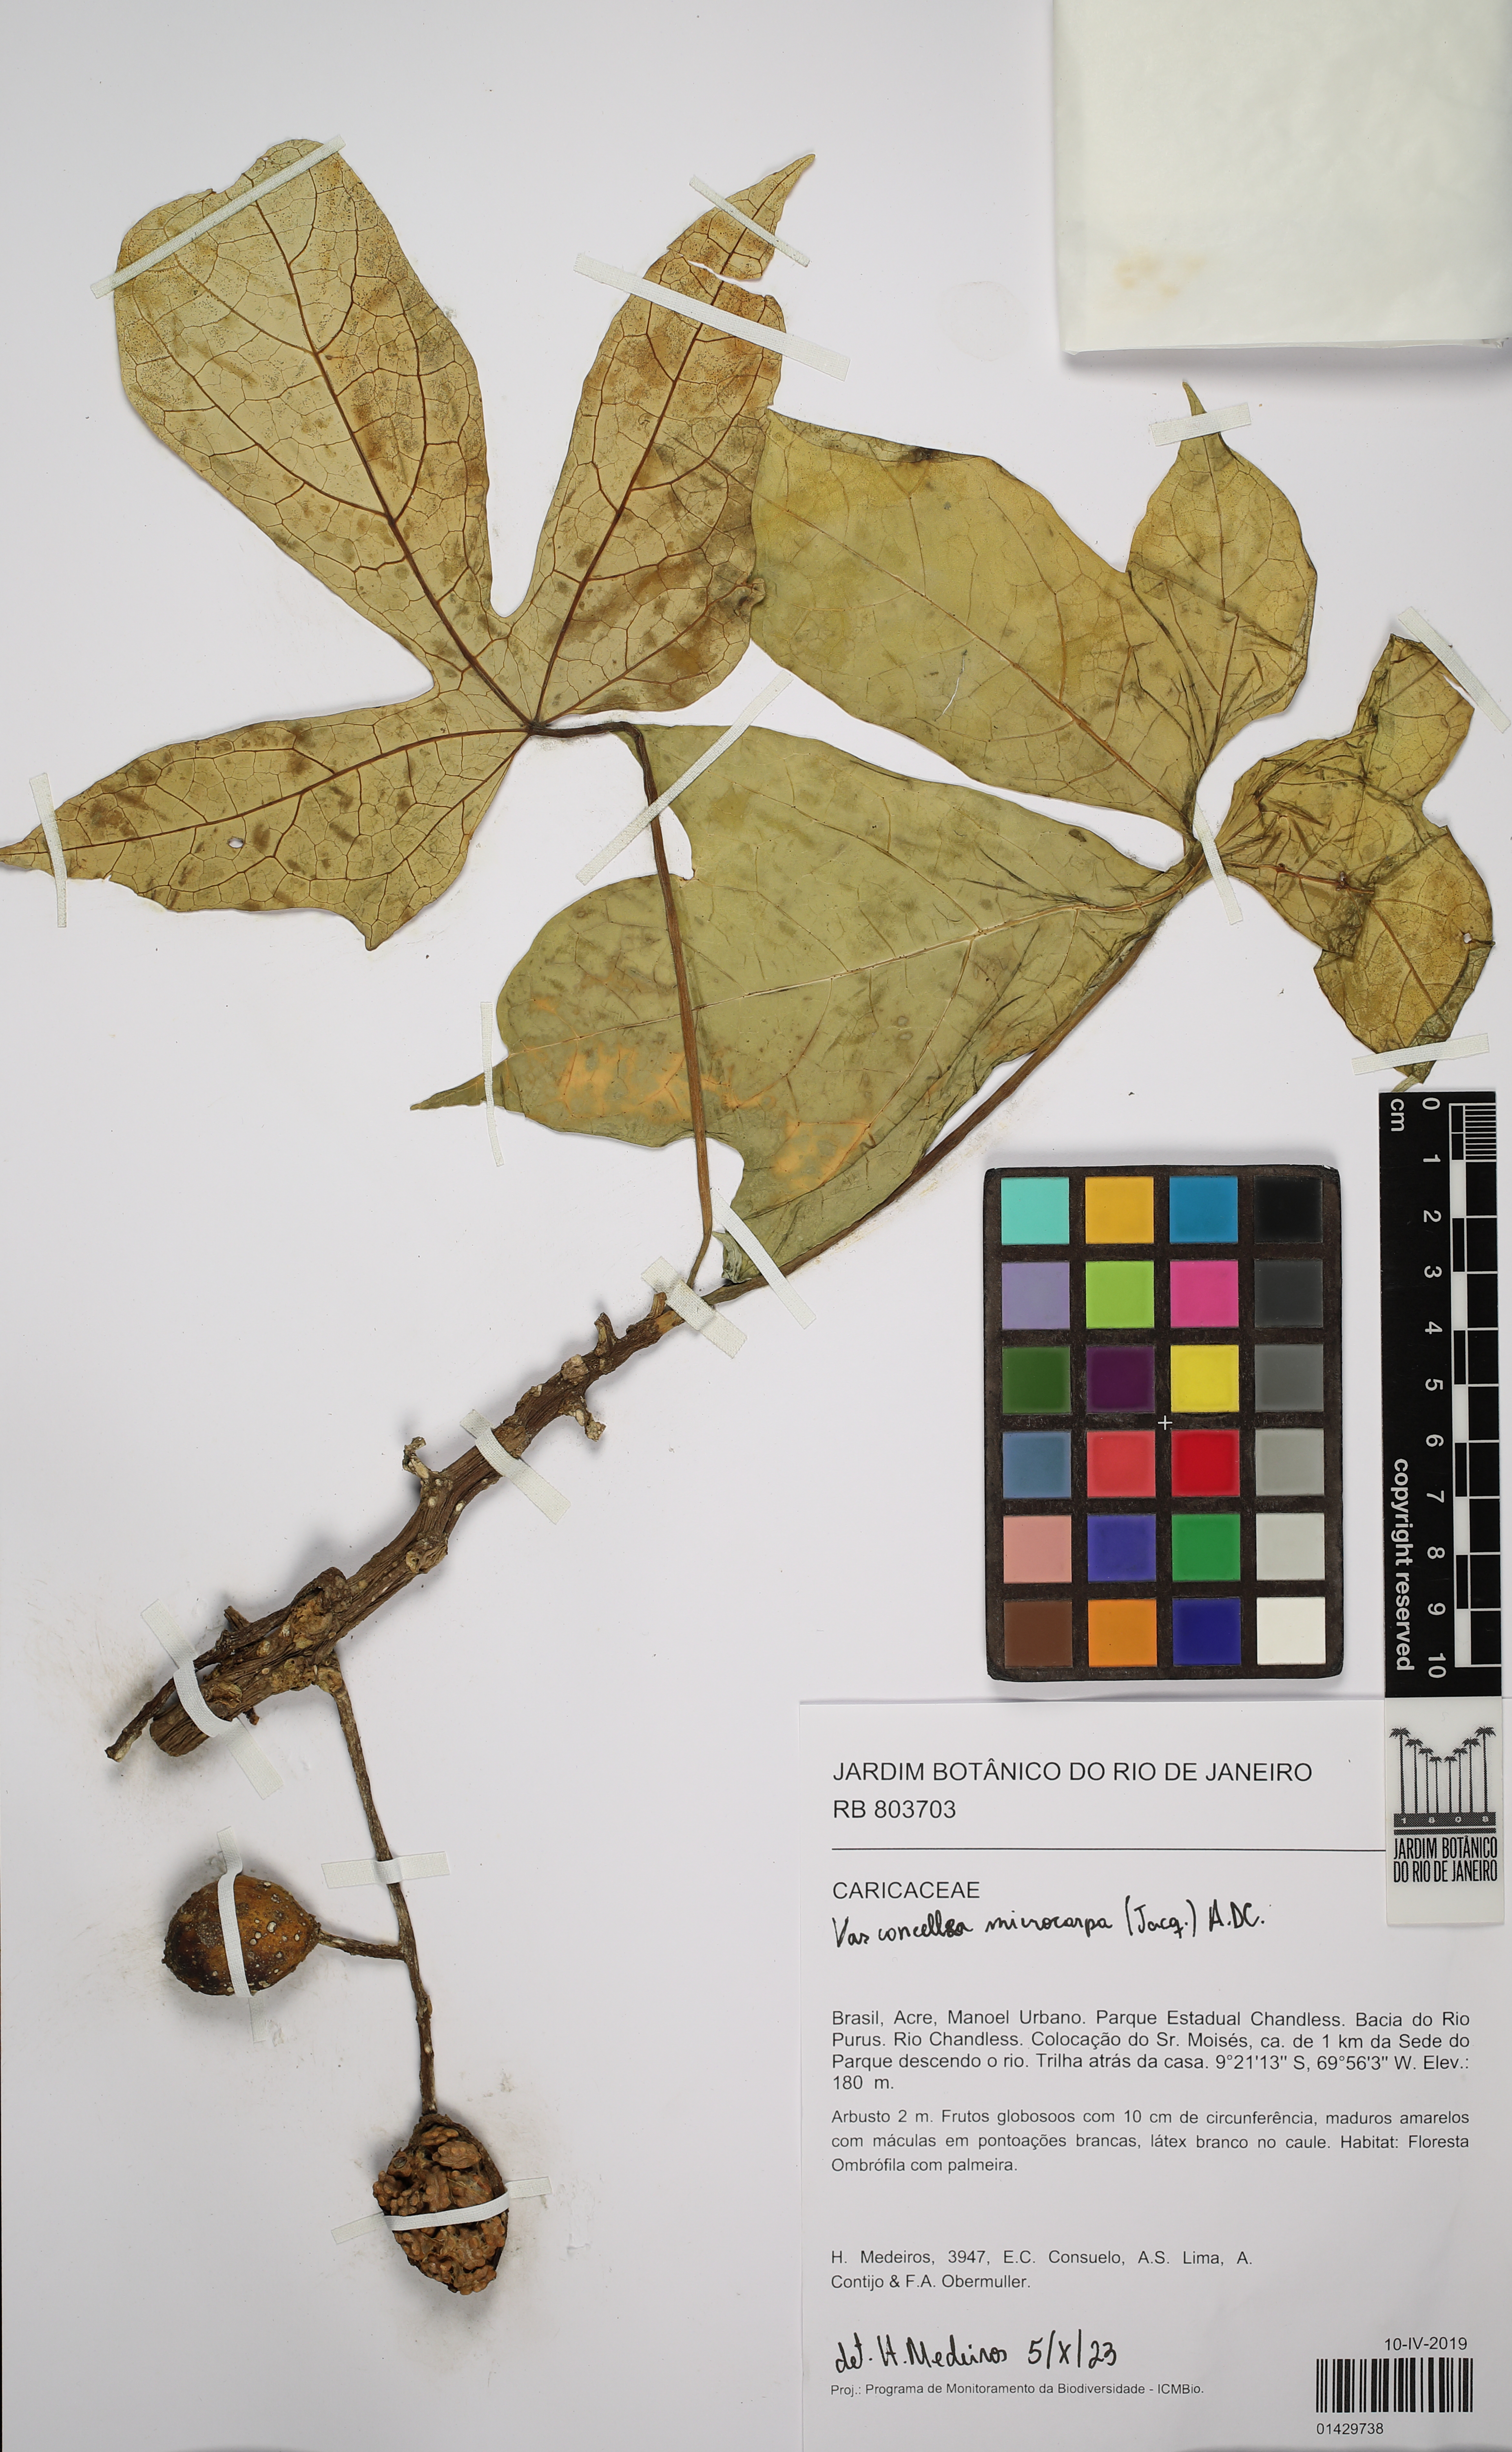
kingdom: Plantae
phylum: Tracheophyta
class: Magnoliopsida
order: Brassicales
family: Caricaceae
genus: Vasconcellea
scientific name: Vasconcellea microcarpa
